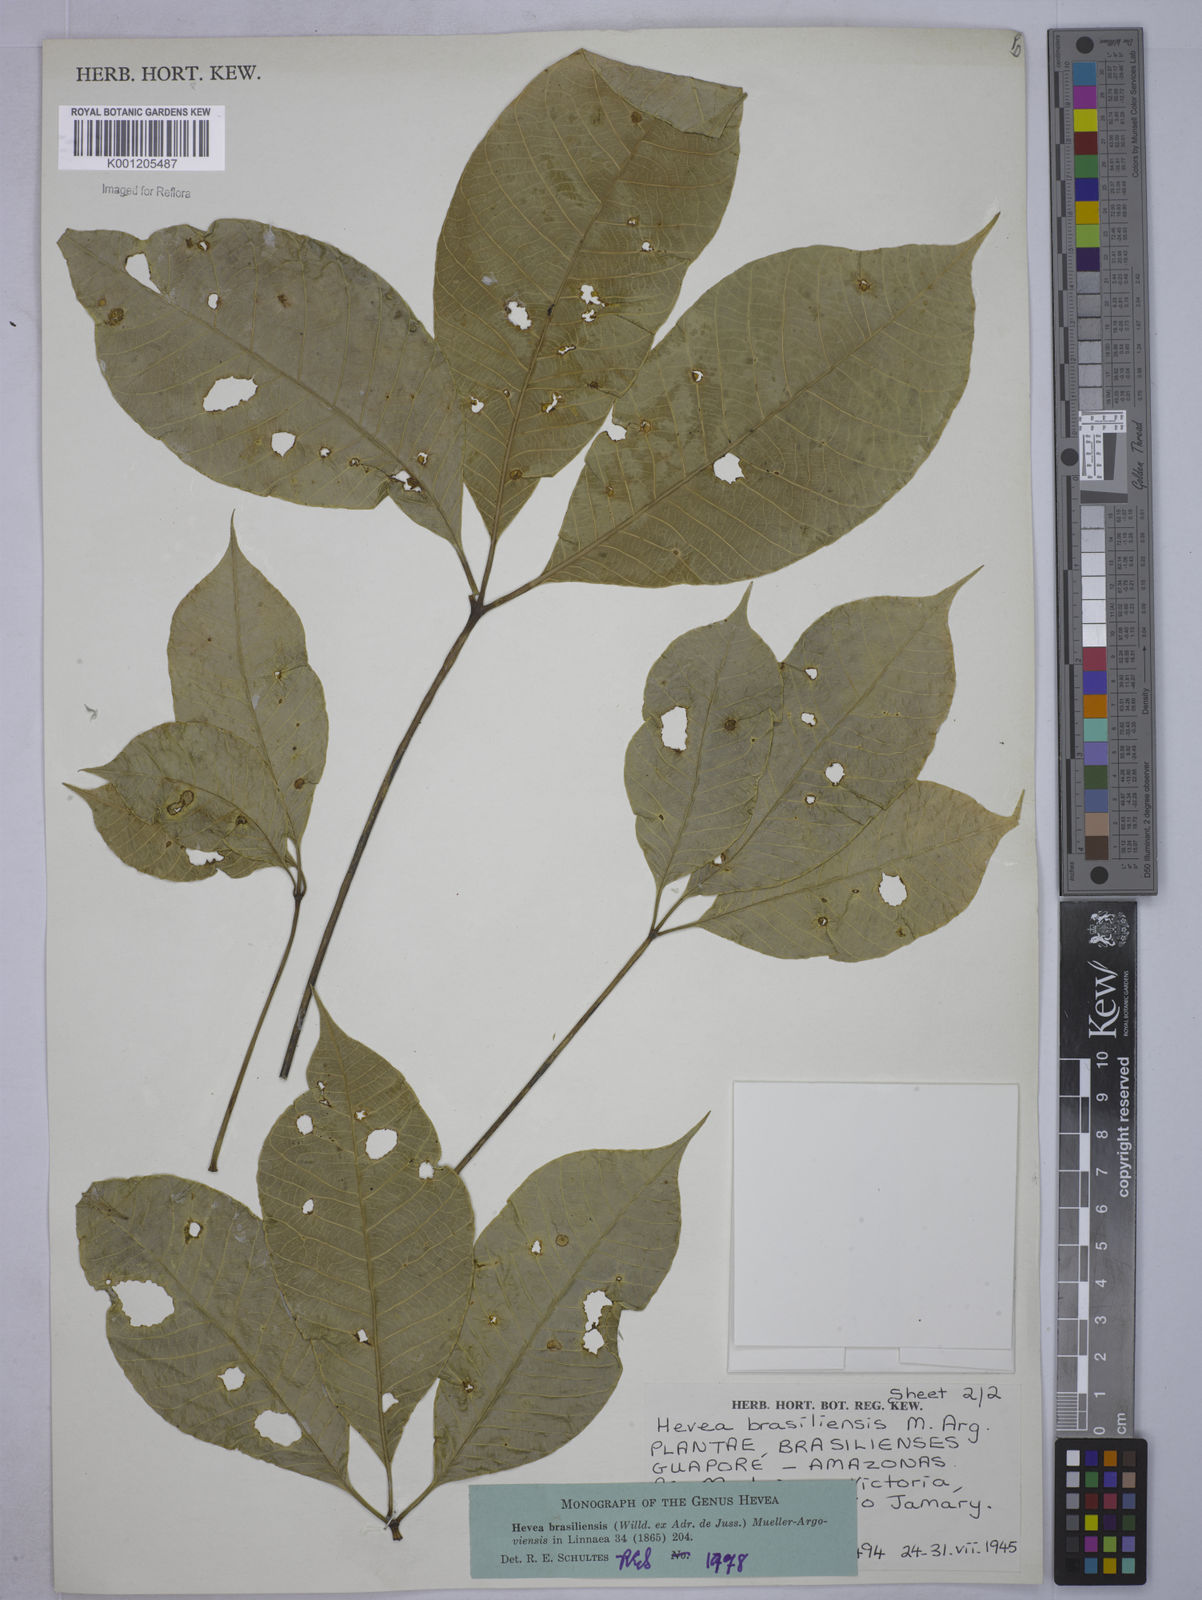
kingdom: Plantae
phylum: Tracheophyta
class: Magnoliopsida
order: Malpighiales
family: Euphorbiaceae
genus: Hevea
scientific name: Hevea
